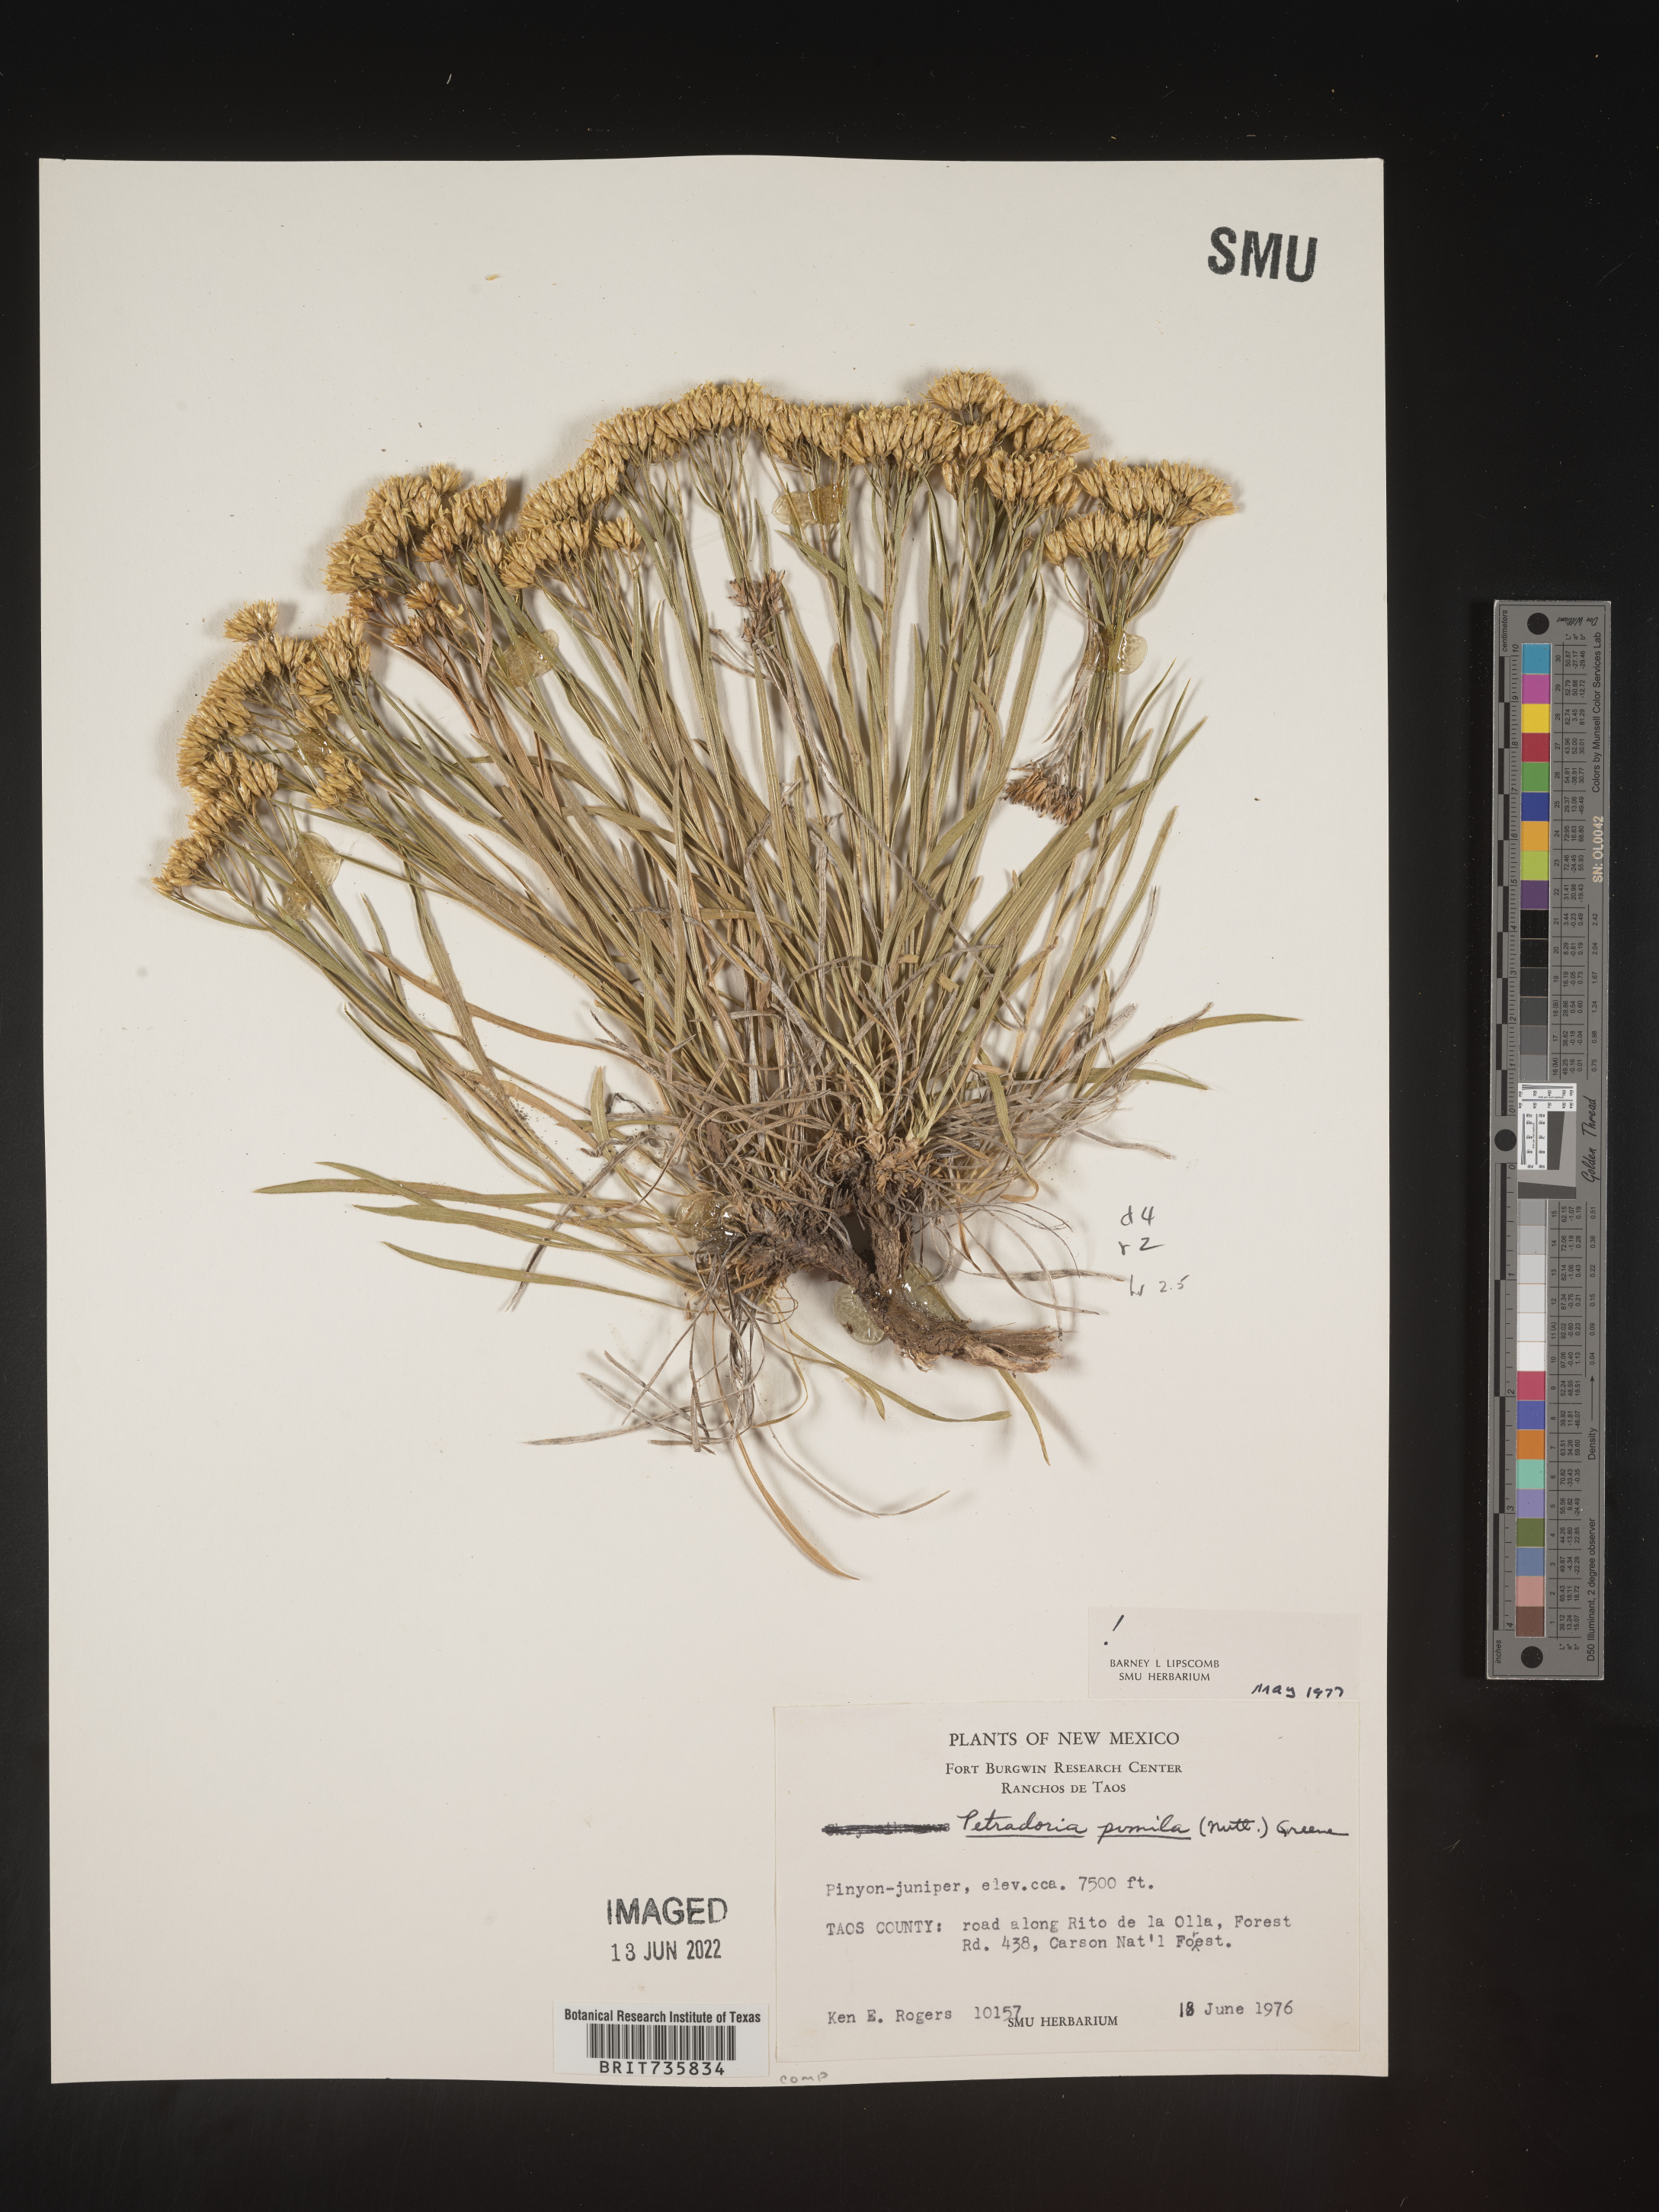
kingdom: Plantae
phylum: Tracheophyta
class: Magnoliopsida
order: Asterales
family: Asteraceae
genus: Petradoria
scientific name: Petradoria pumila
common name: Rock-goldenrod
